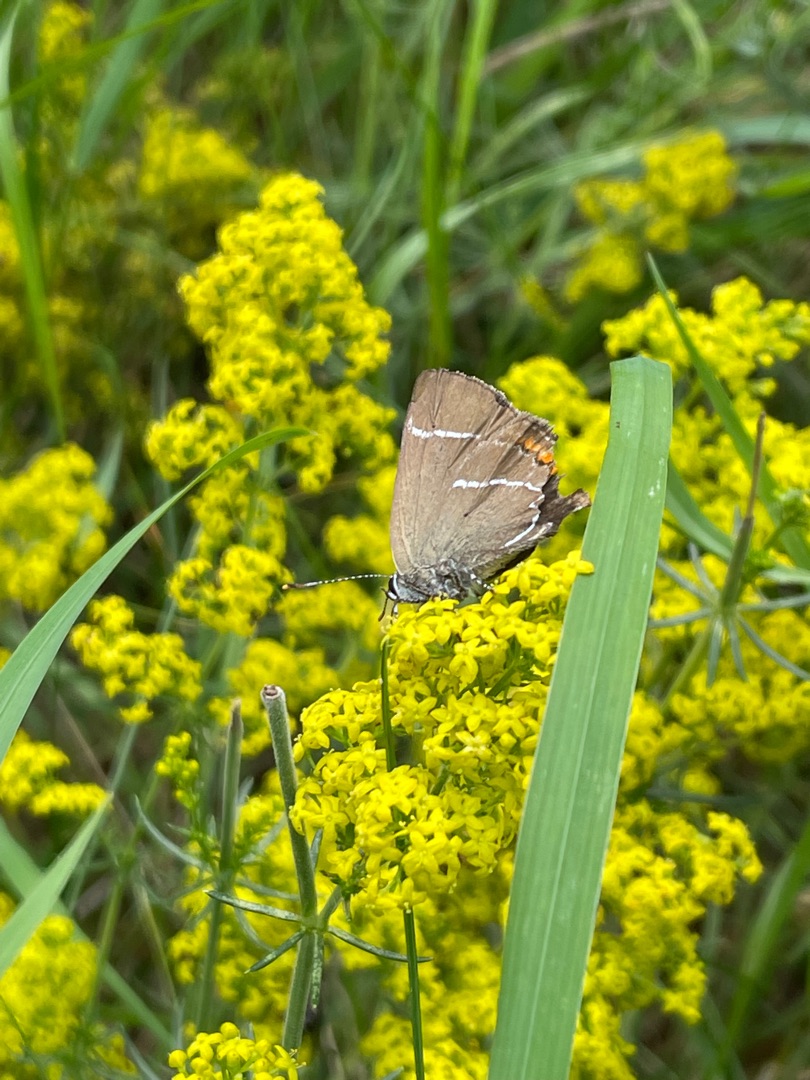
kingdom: Animalia
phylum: Arthropoda
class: Insecta
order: Lepidoptera
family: Lycaenidae
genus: Satyrium
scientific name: Satyrium w-album
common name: Det hvide W
